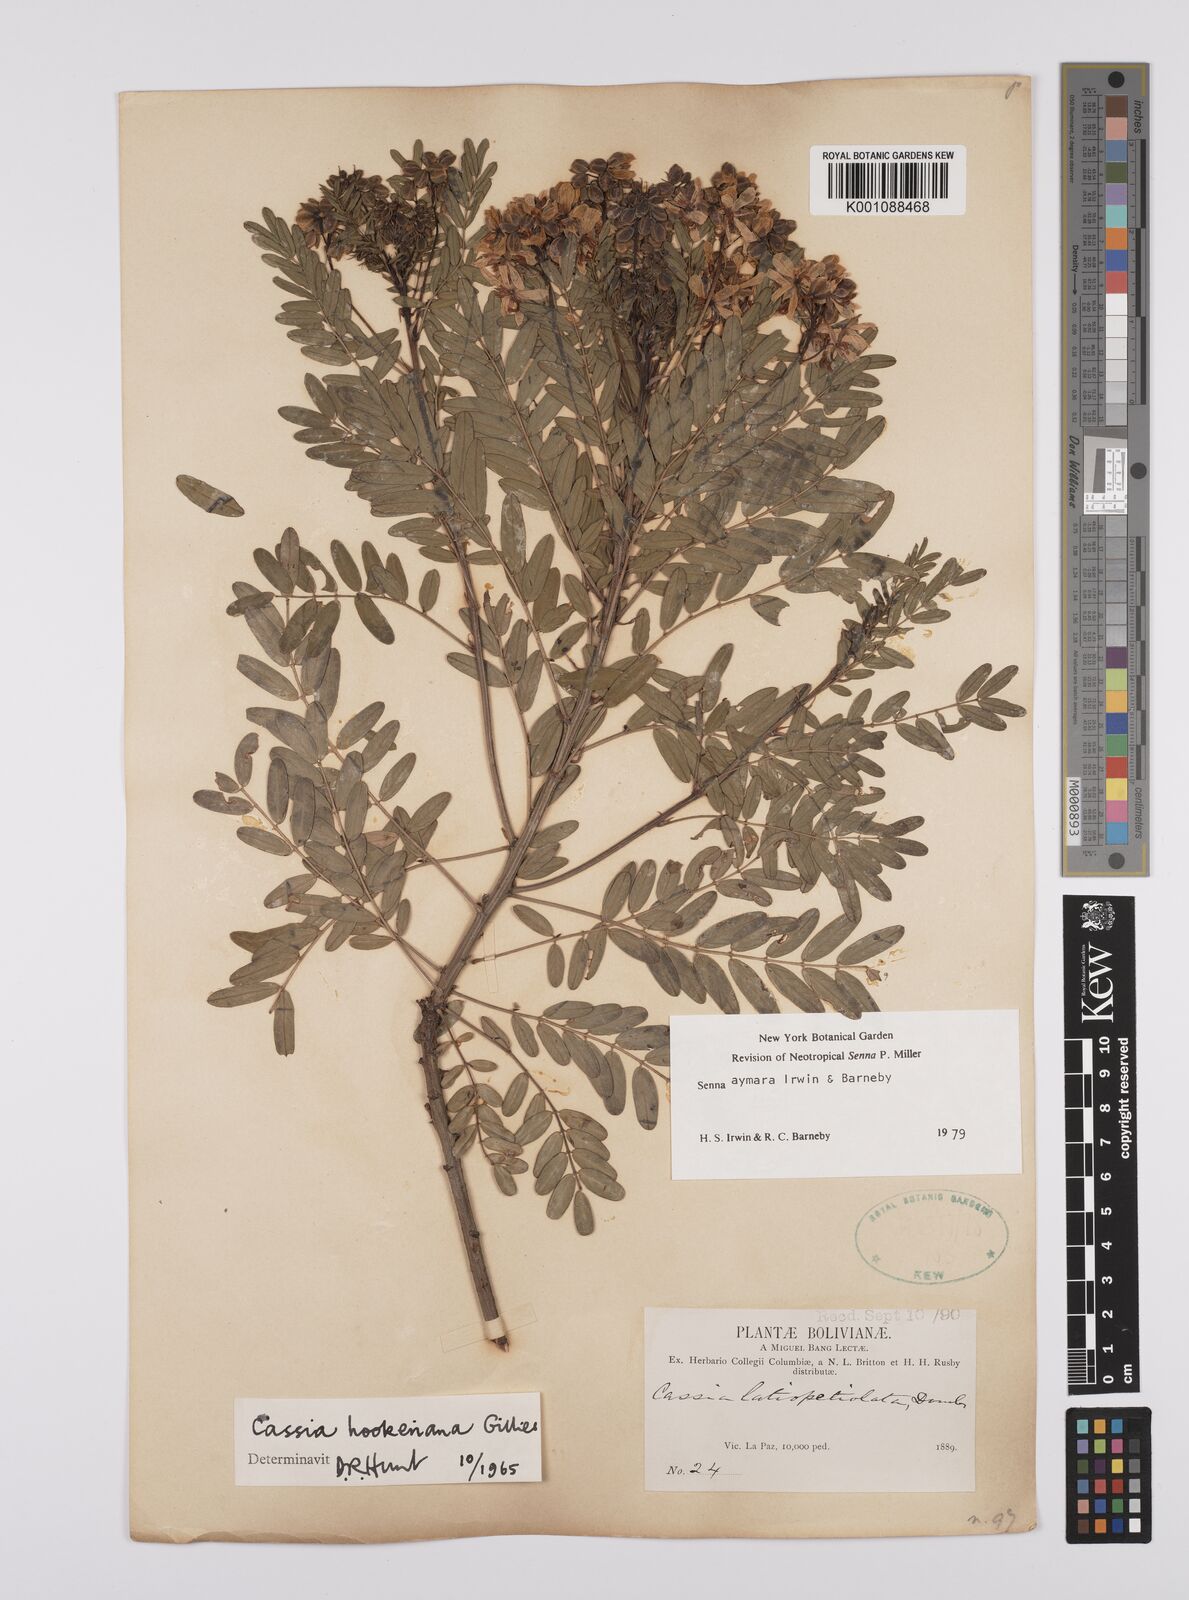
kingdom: Plantae
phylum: Tracheophyta
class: Magnoliopsida
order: Fabales
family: Fabaceae
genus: Senna
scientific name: Senna aymara
